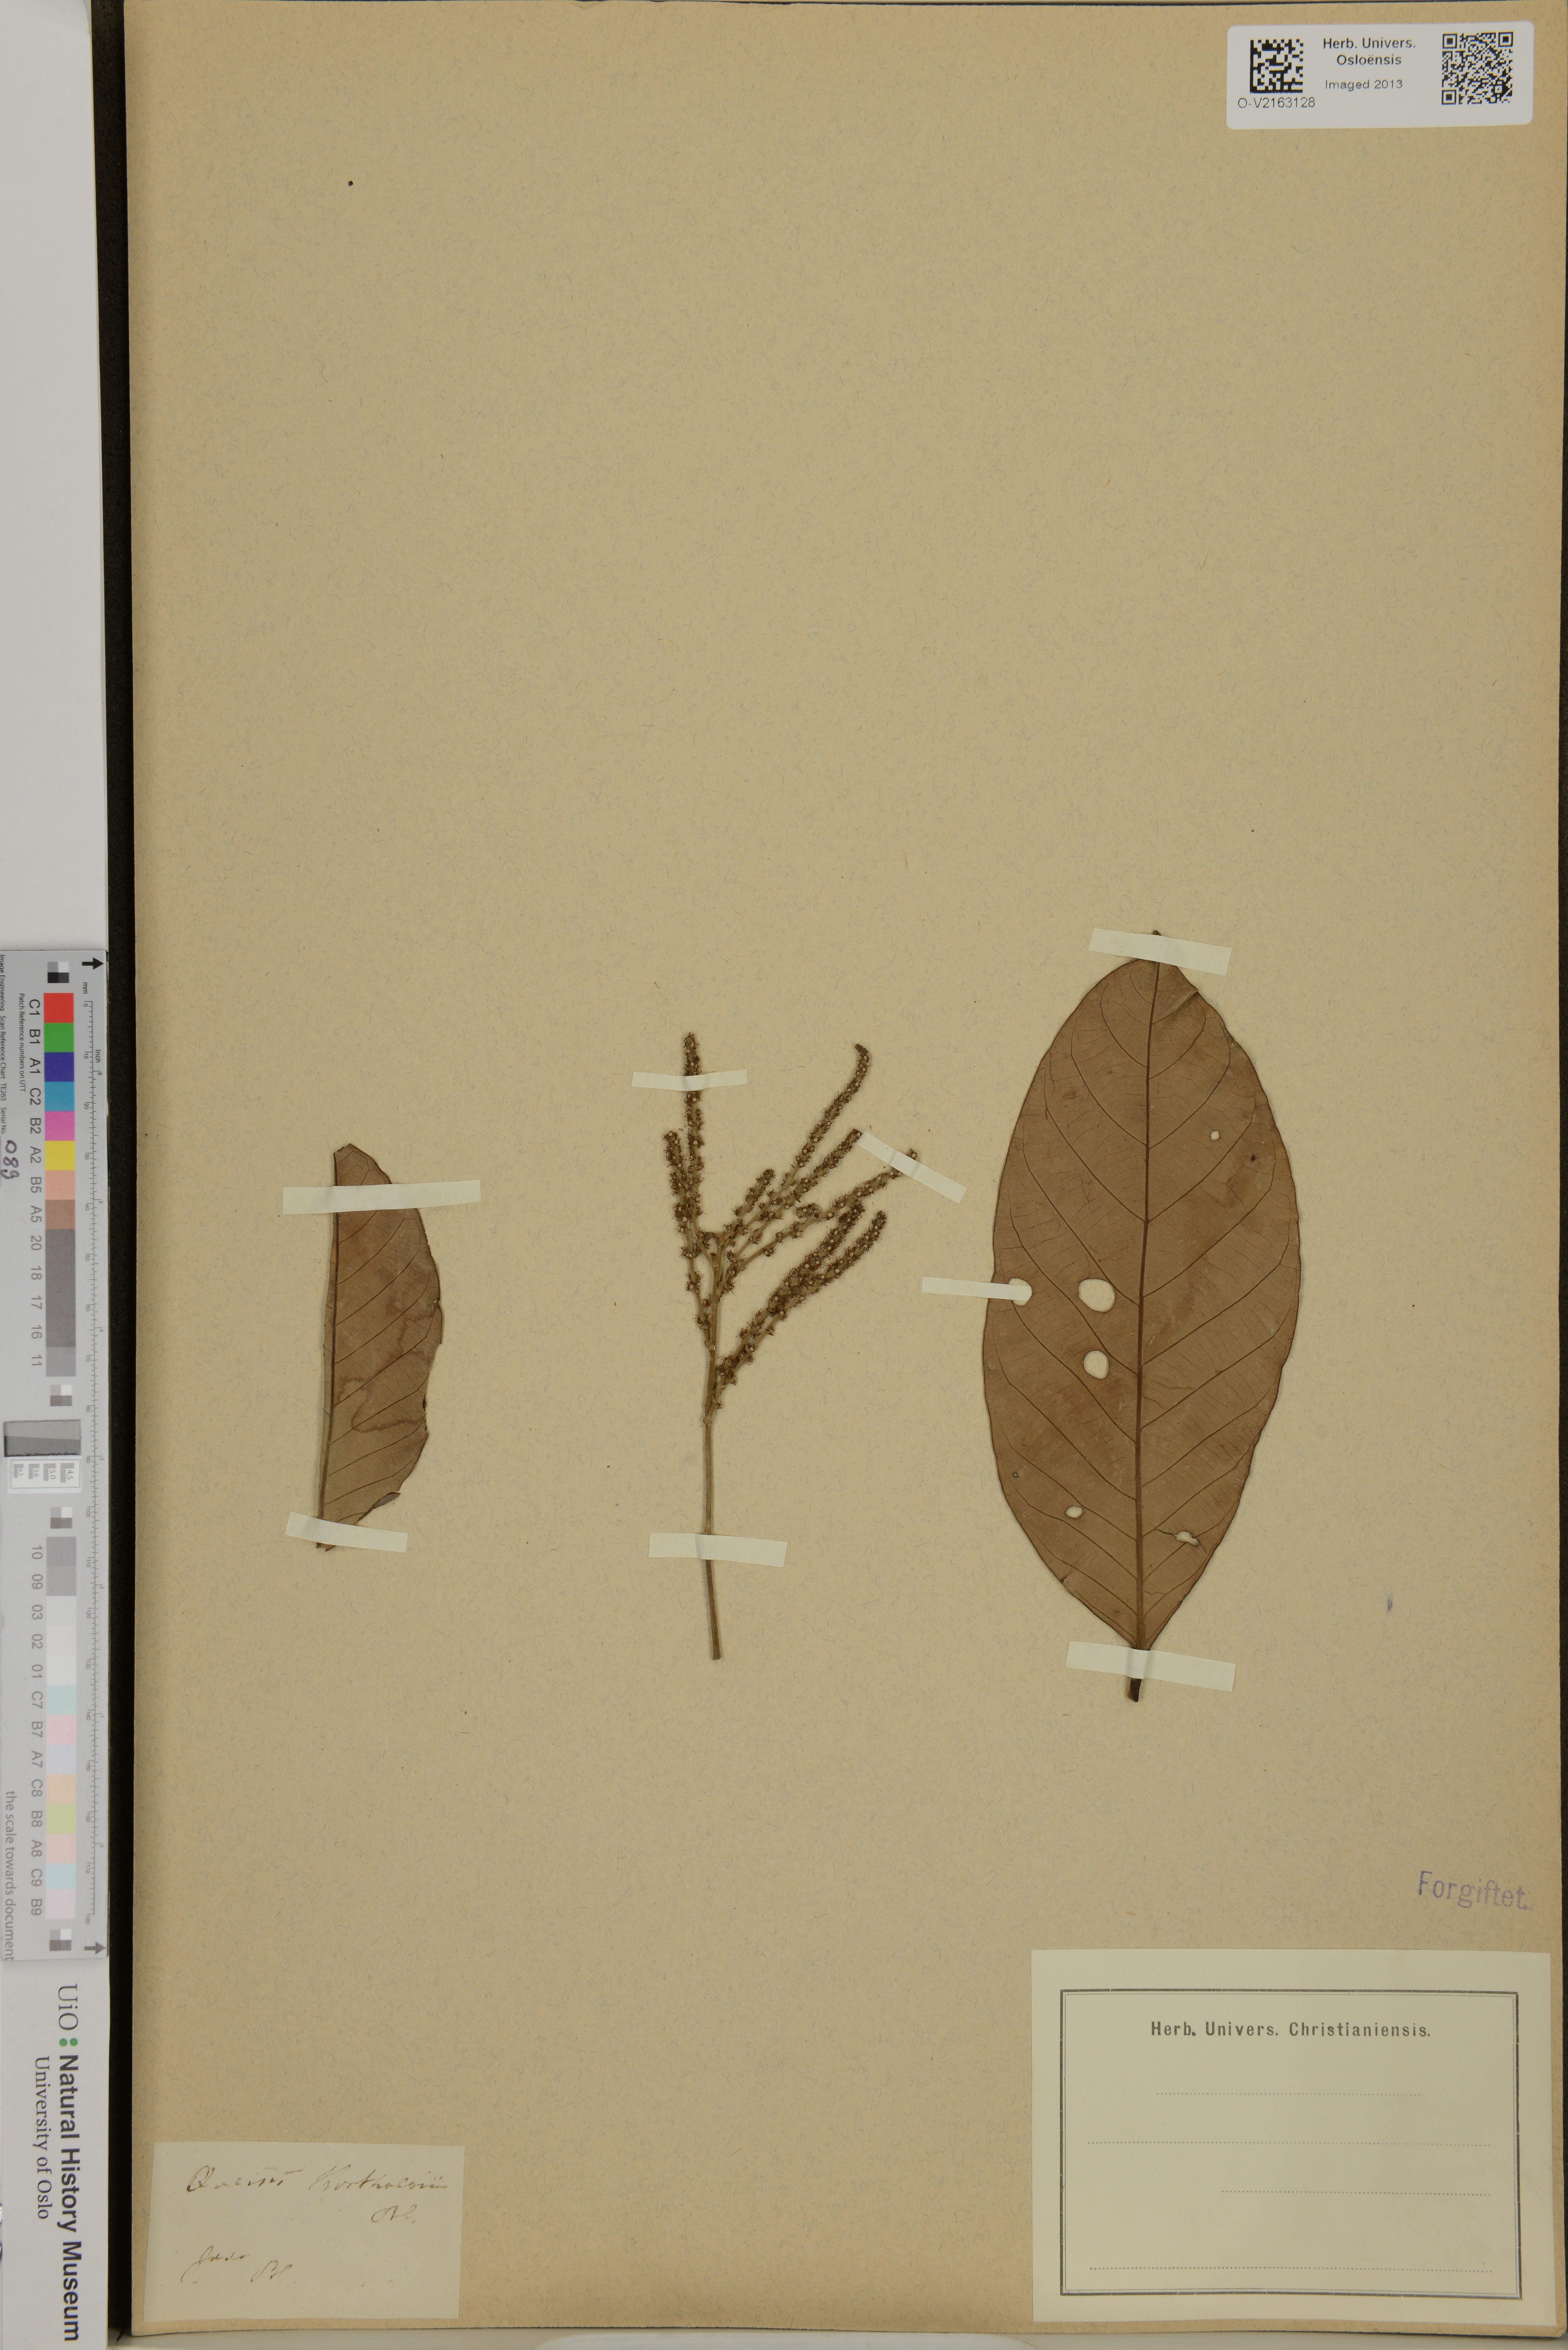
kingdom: Plantae
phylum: Tracheophyta
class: Magnoliopsida
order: Fagales
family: Fagaceae
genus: Lithocarpus
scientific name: Lithocarpus
